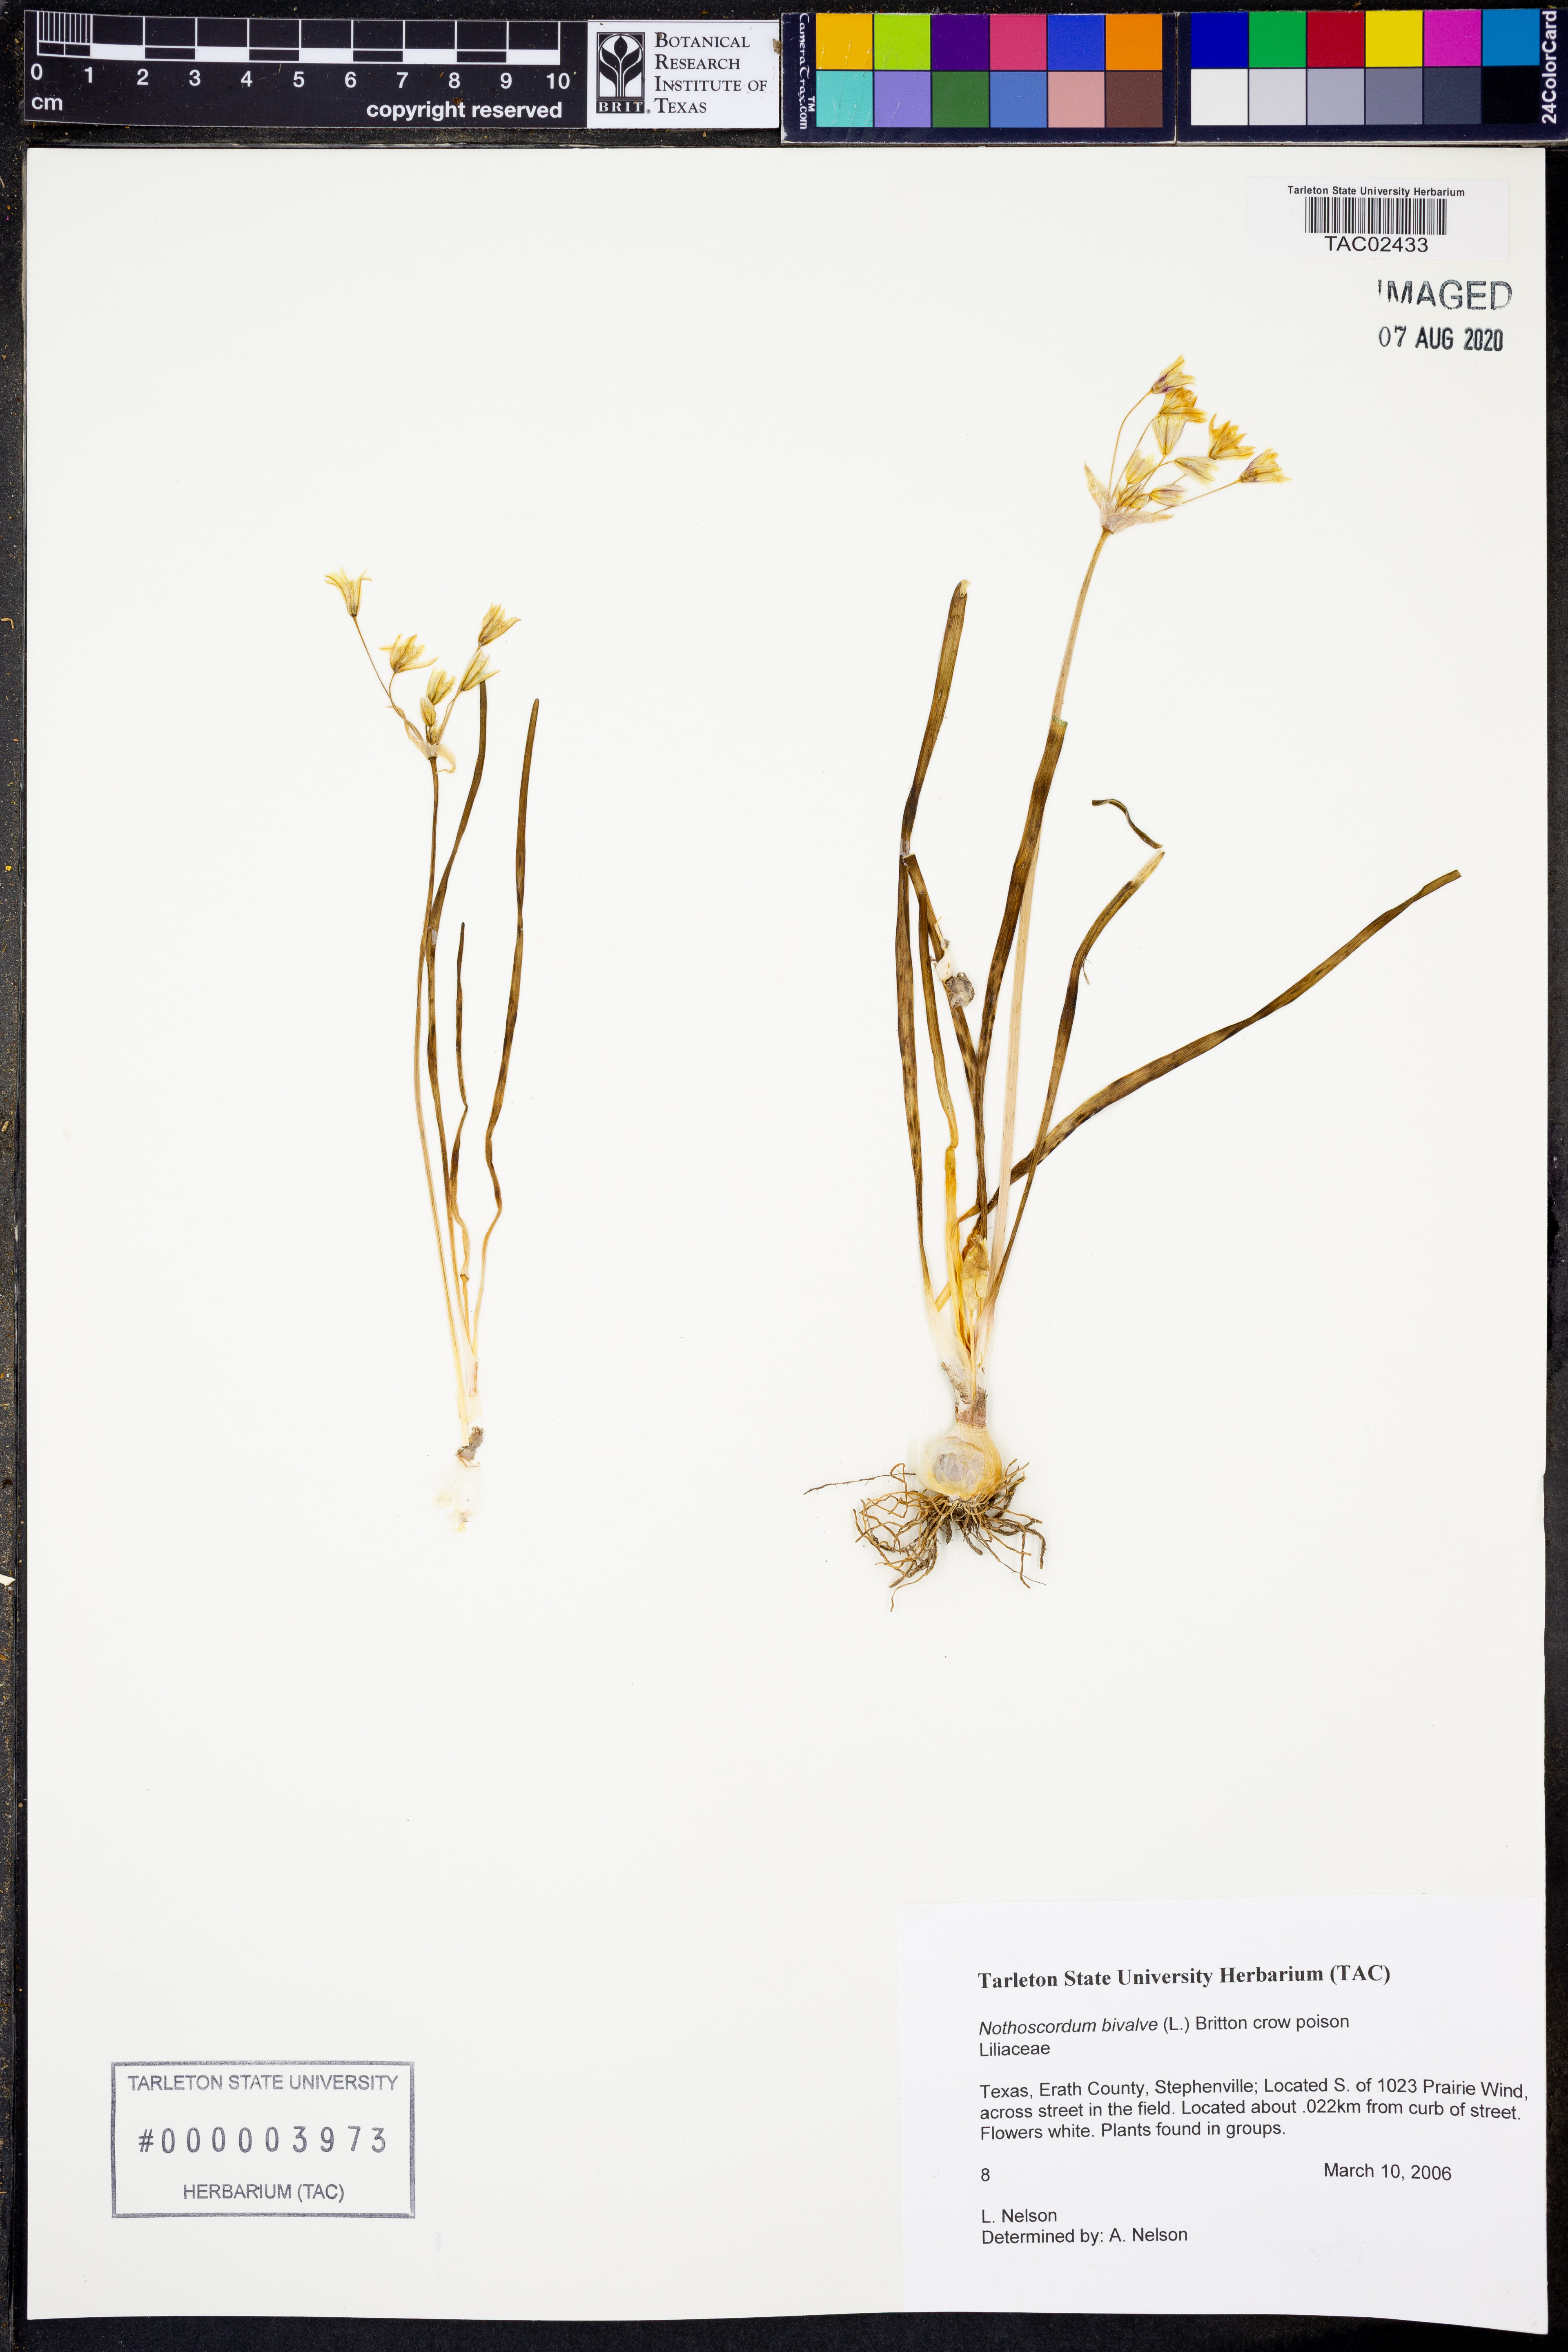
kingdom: Plantae
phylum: Tracheophyta
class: Liliopsida
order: Asparagales
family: Amaryllidaceae
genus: Nothoscordum
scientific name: Nothoscordum bivalve
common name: Crow-poison
